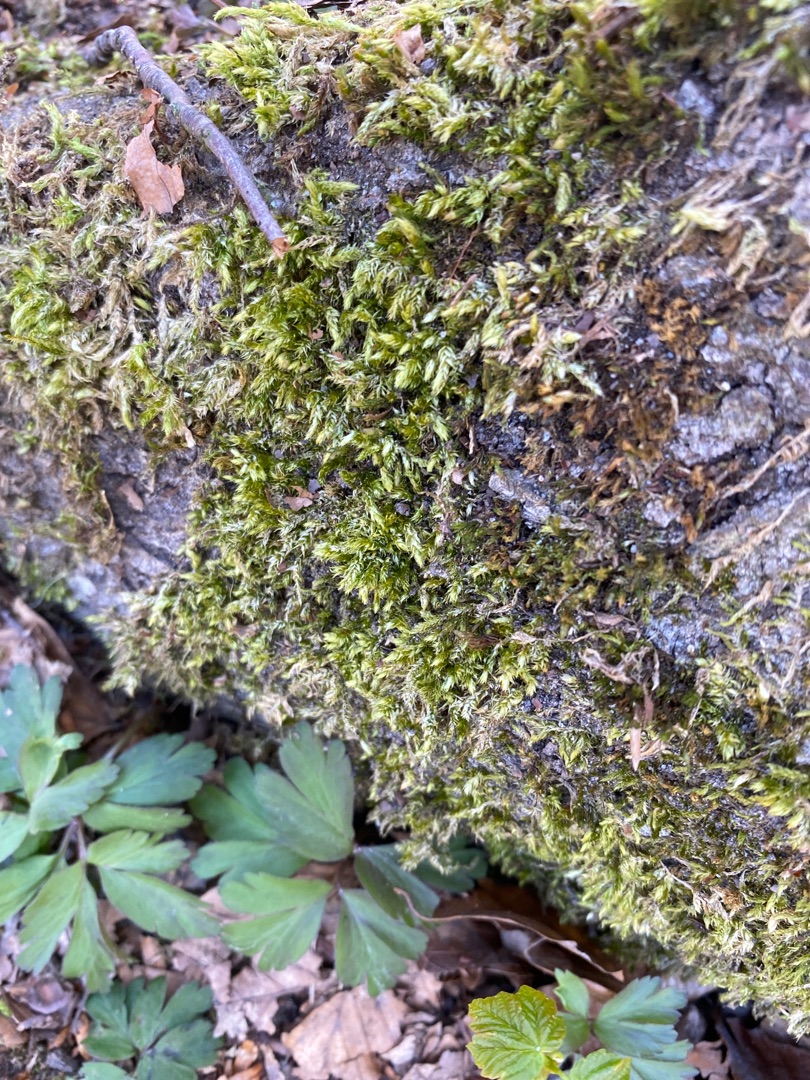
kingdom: Plantae
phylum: Bryophyta
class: Bryopsida
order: Hypnales
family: Brachytheciaceae
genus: Brachythecium
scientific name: Brachythecium rutabulum
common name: Almindelig kortkapsel
